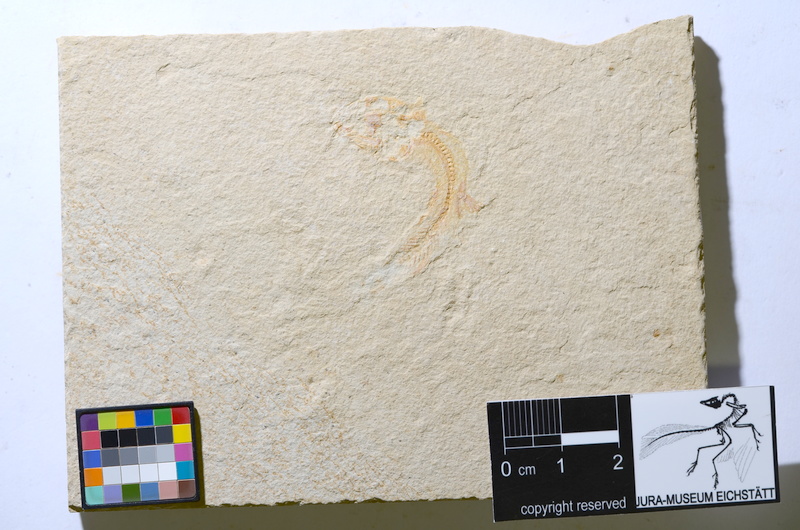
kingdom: Animalia
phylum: Chordata
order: Salmoniformes
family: Orthogonikleithridae
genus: Leptolepides
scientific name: Leptolepides
